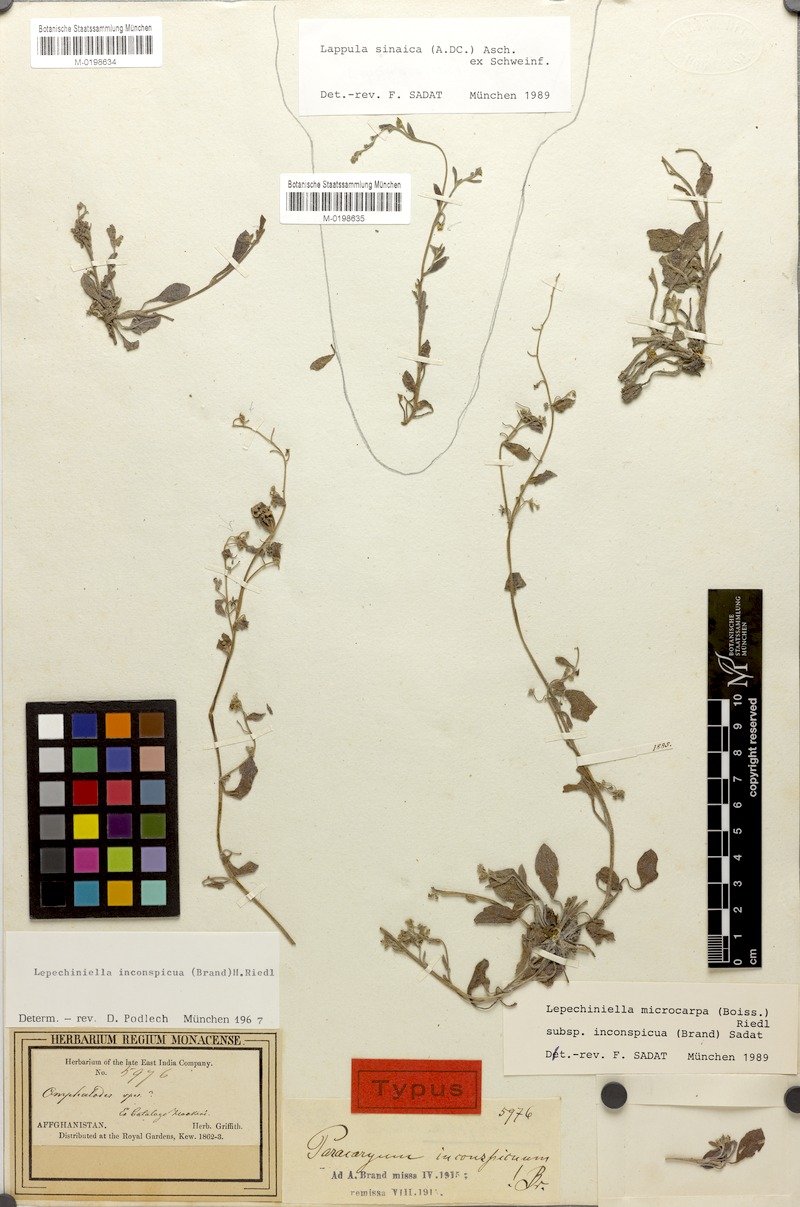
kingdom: Plantae
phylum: Tracheophyta
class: Magnoliopsida
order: Boraginales
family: Boraginaceae
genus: Lepechiniella
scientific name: Lepechiniella microcarpa
